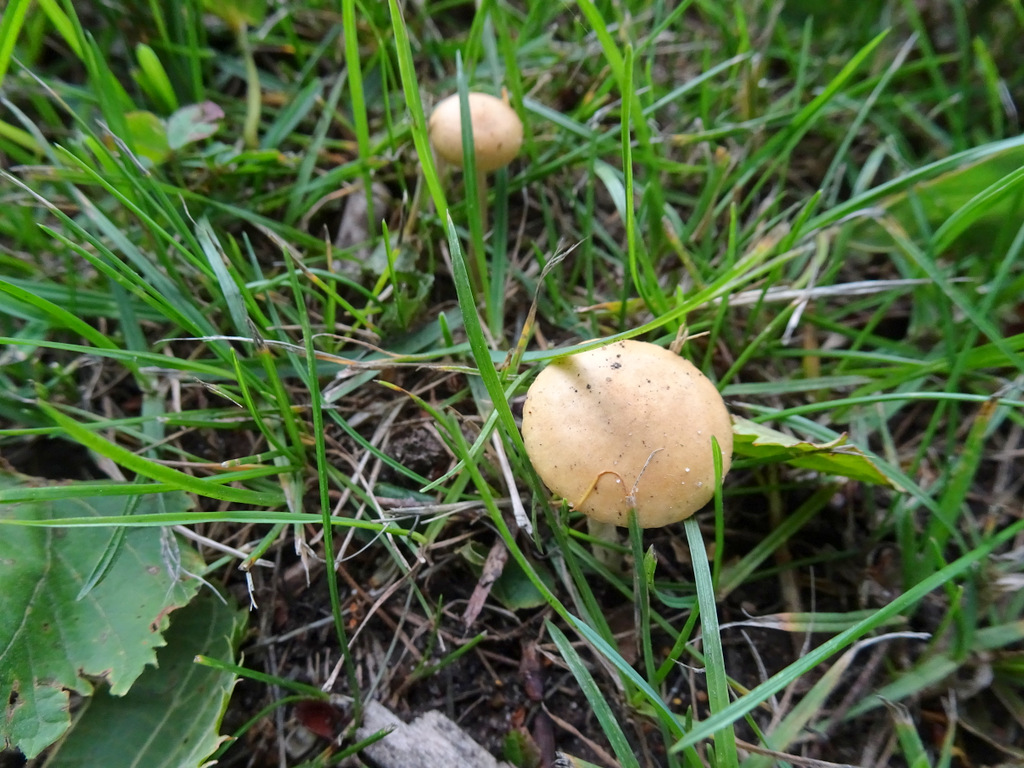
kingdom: Fungi
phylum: Basidiomycota
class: Agaricomycetes
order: Agaricales
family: Strophariaceae
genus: Agrocybe
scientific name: Agrocybe pediades
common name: almindelig agerhat
